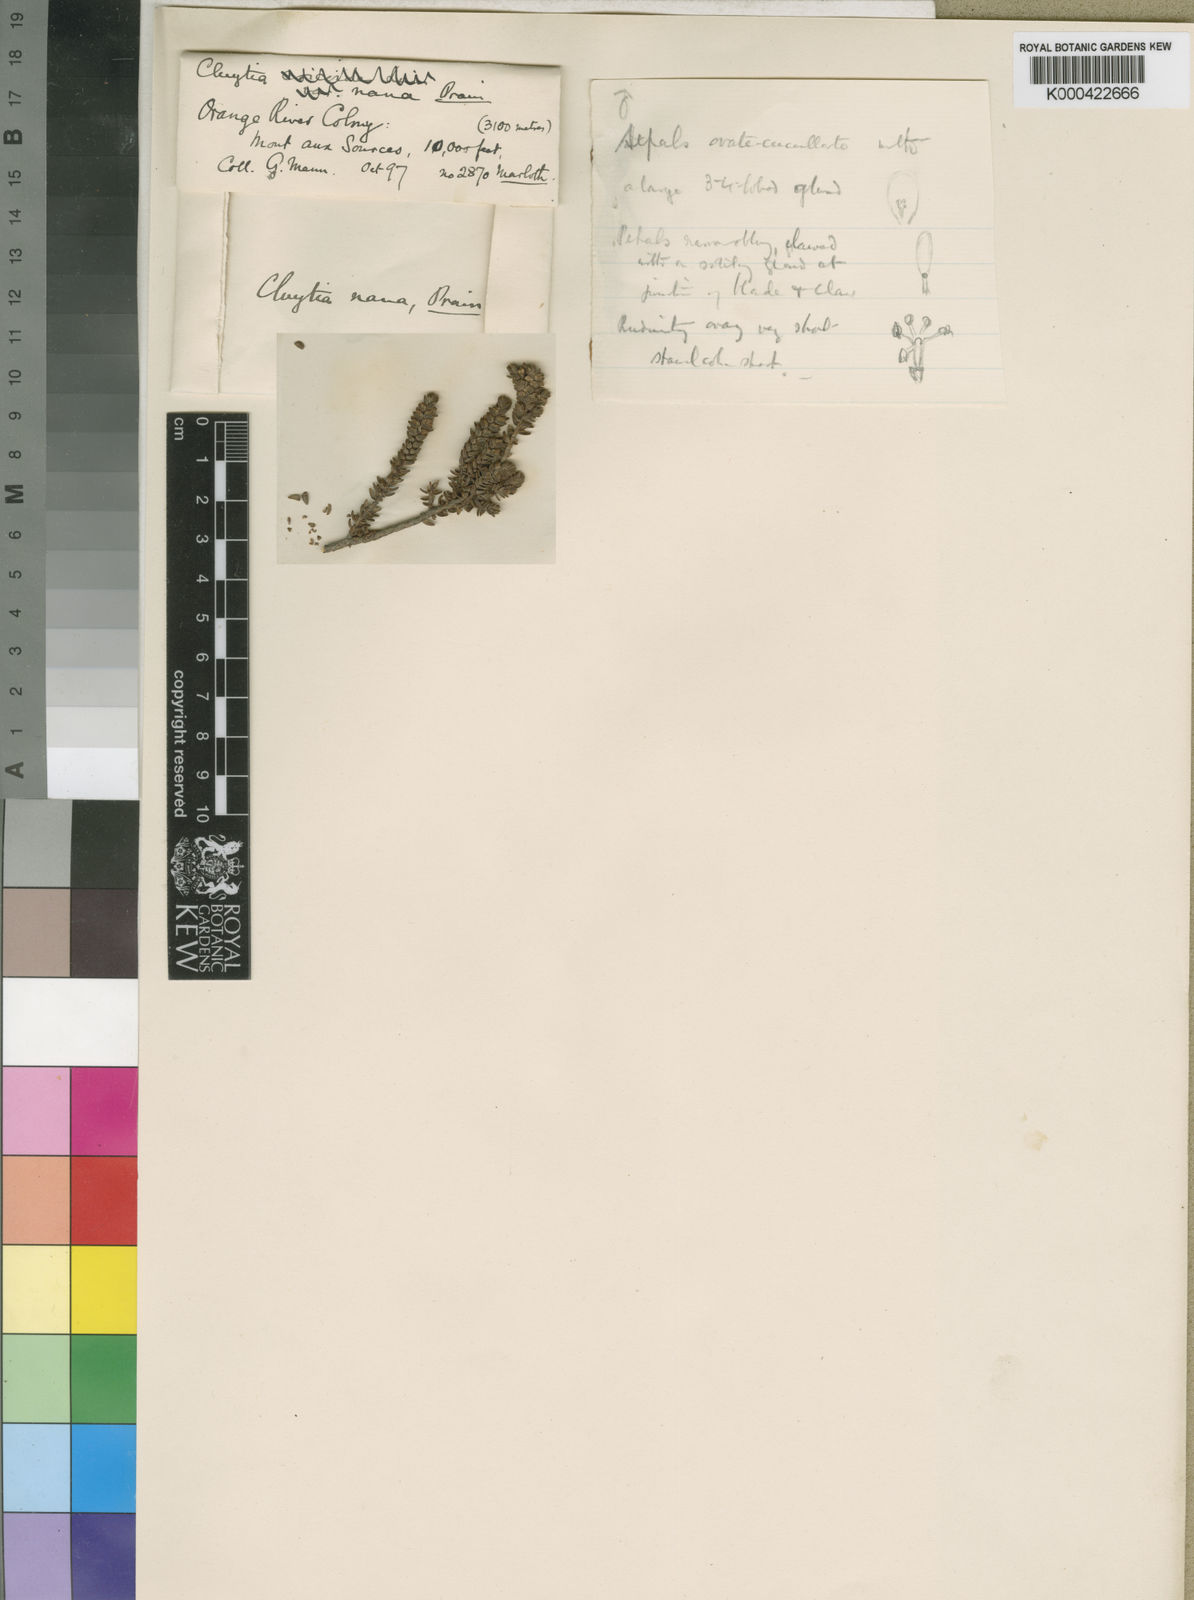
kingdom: Plantae
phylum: Tracheophyta
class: Magnoliopsida
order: Malpighiales
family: Peraceae
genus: Clutia
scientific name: Clutia nana
